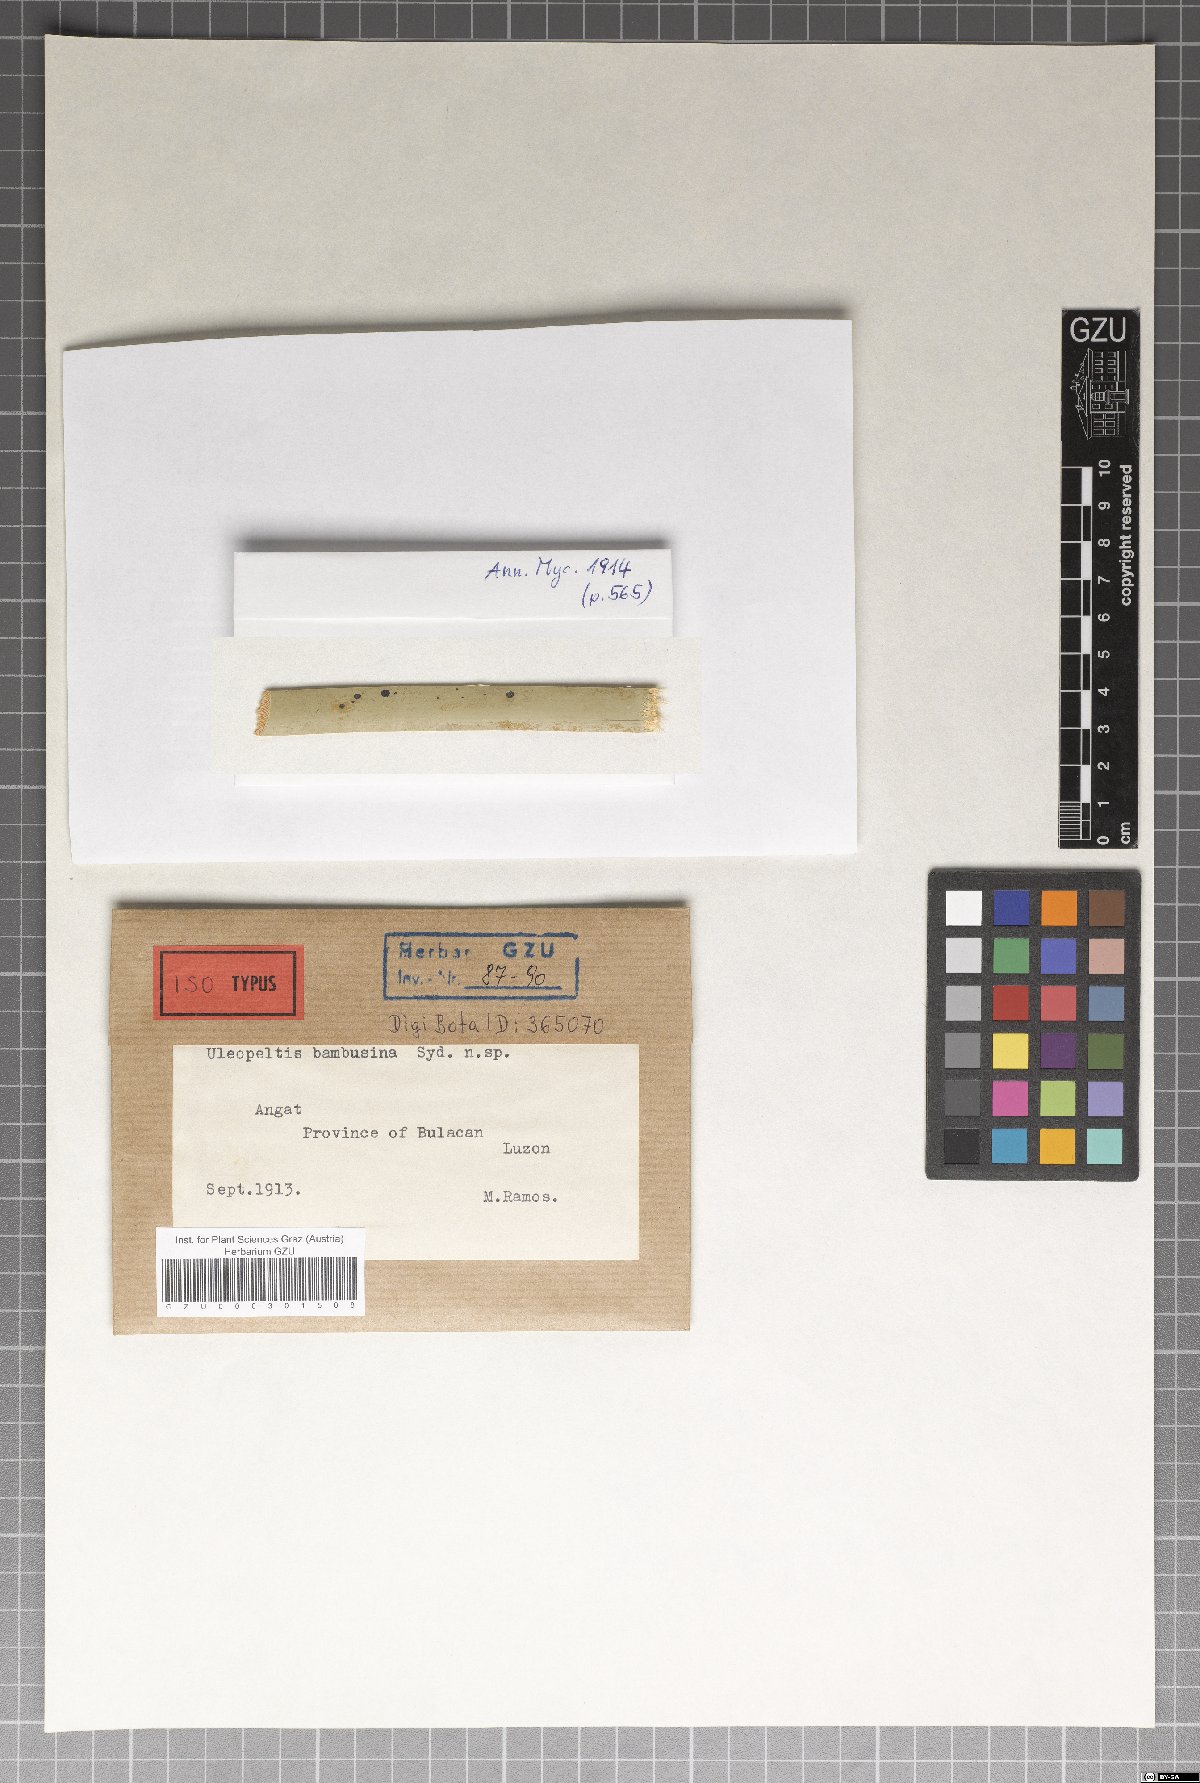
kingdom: Fungi
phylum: Ascomycota
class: Dothideomycetes
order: Myriangiales
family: Myriangiaceae
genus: Mendogia
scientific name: Mendogia bambusina
